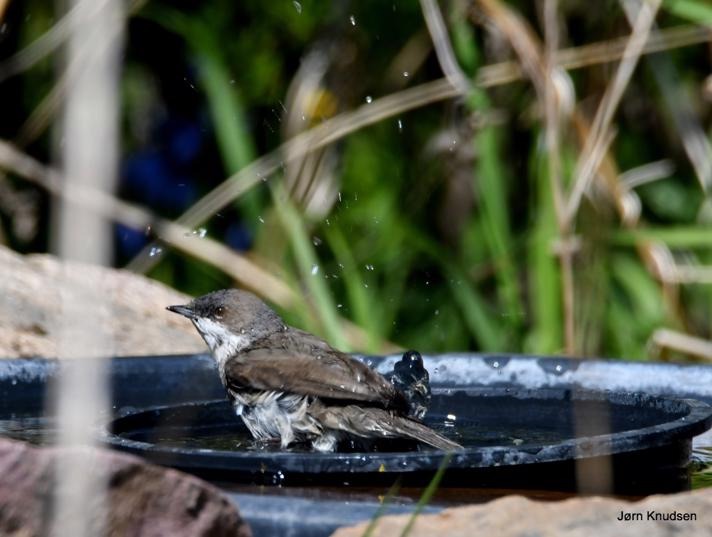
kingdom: Animalia
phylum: Chordata
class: Aves
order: Passeriformes
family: Sylviidae
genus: Sylvia
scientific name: Sylvia curruca
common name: Gærdesanger
